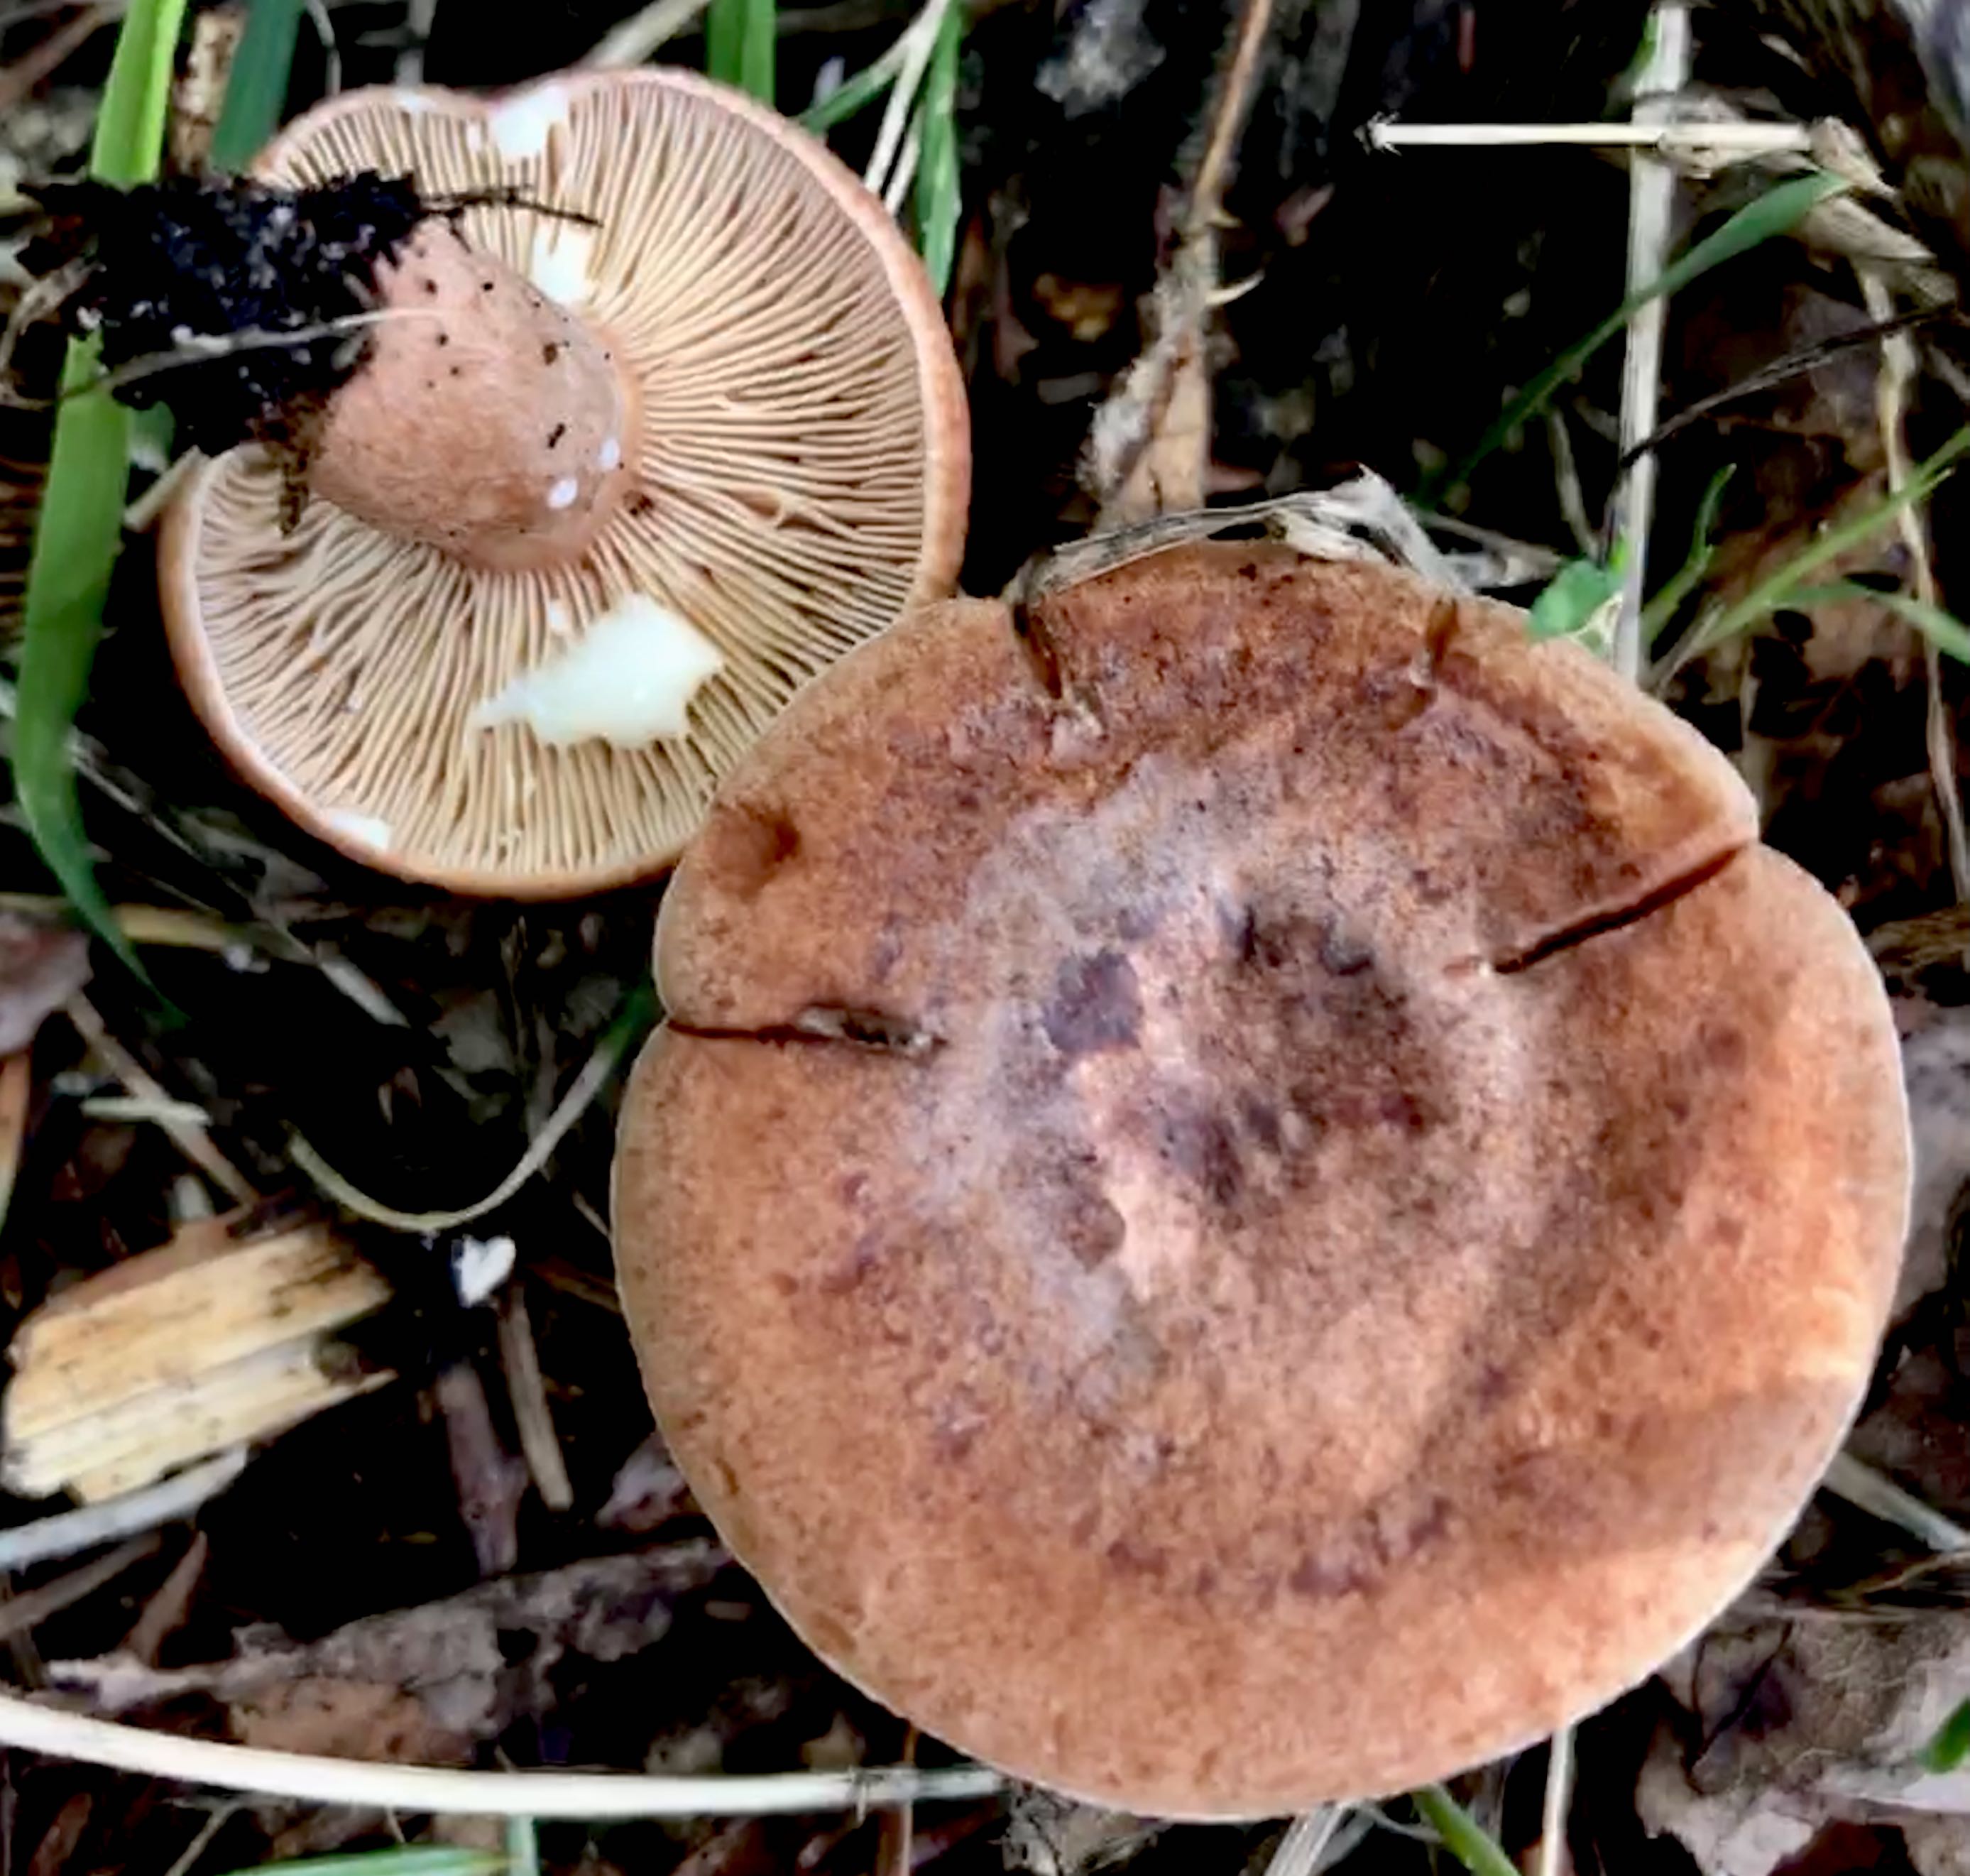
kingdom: Fungi
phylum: Basidiomycota
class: Agaricomycetes
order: Russulales
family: Russulaceae
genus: Lactarius
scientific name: Lactarius quietus
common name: ege-mælkehat
